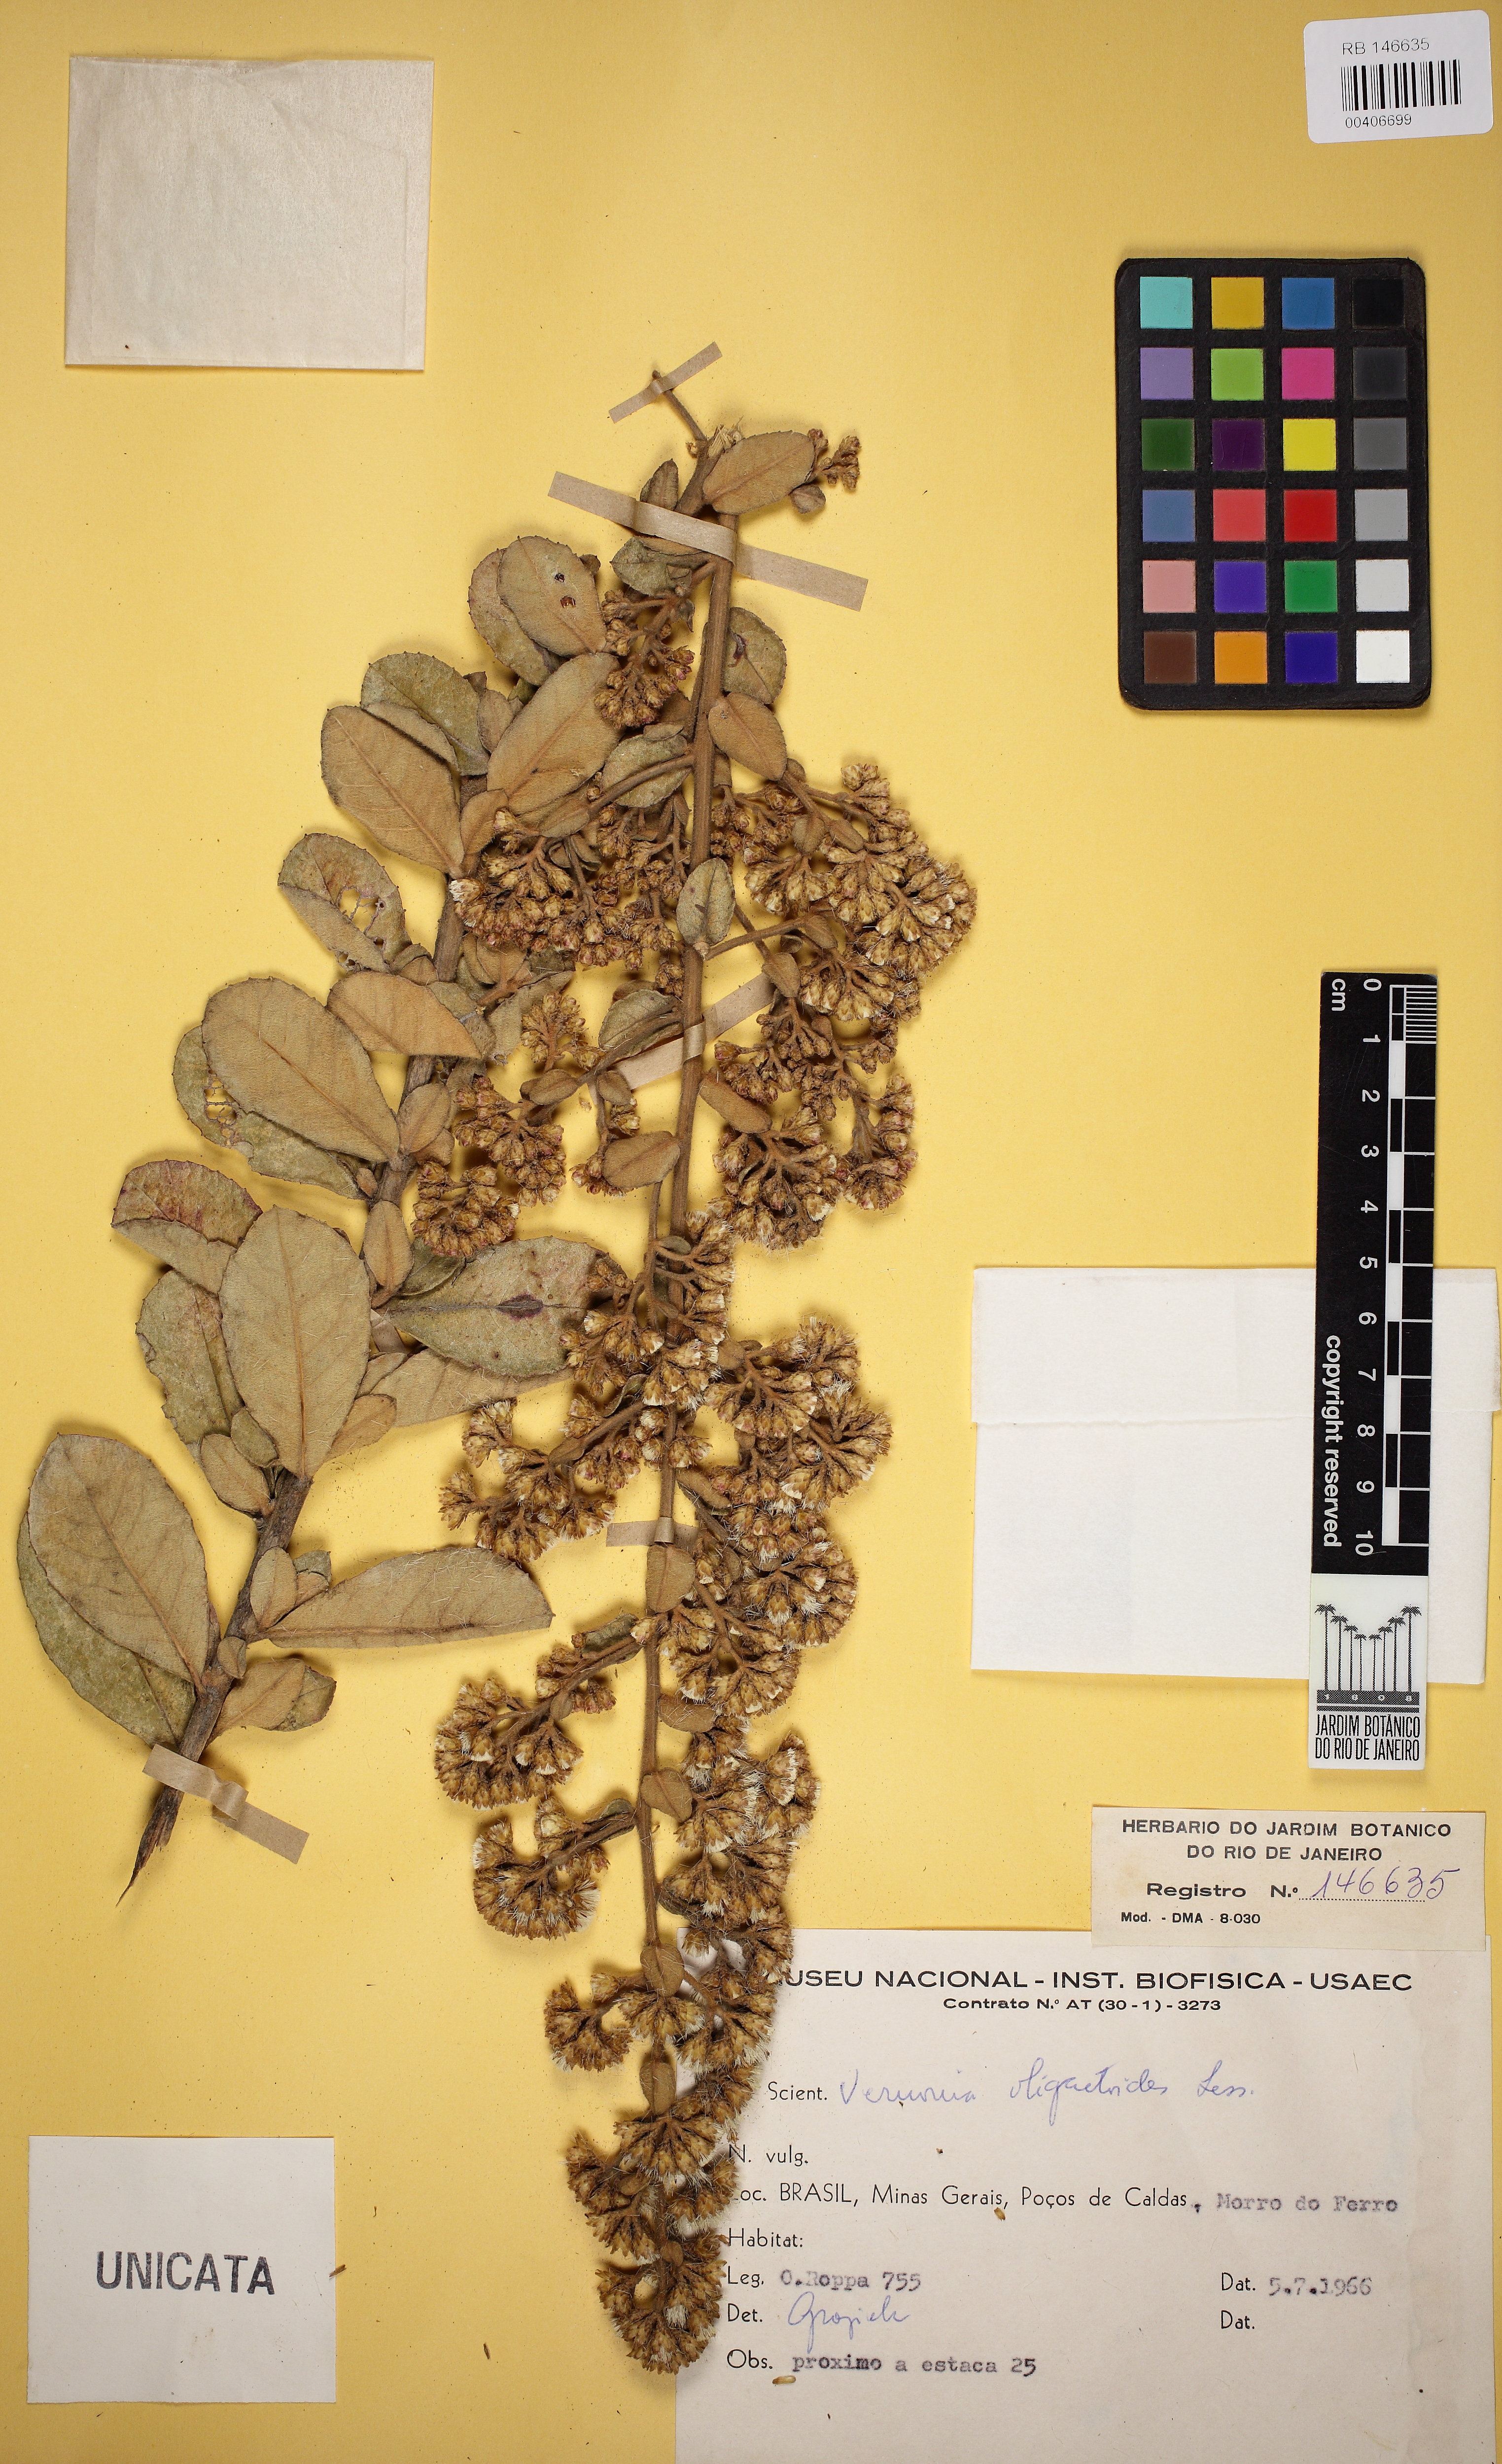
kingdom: Plantae
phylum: Tracheophyta
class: Magnoliopsida
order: Asterales
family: Asteraceae
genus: Vernonanthura
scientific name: Vernonanthura oligactoides
